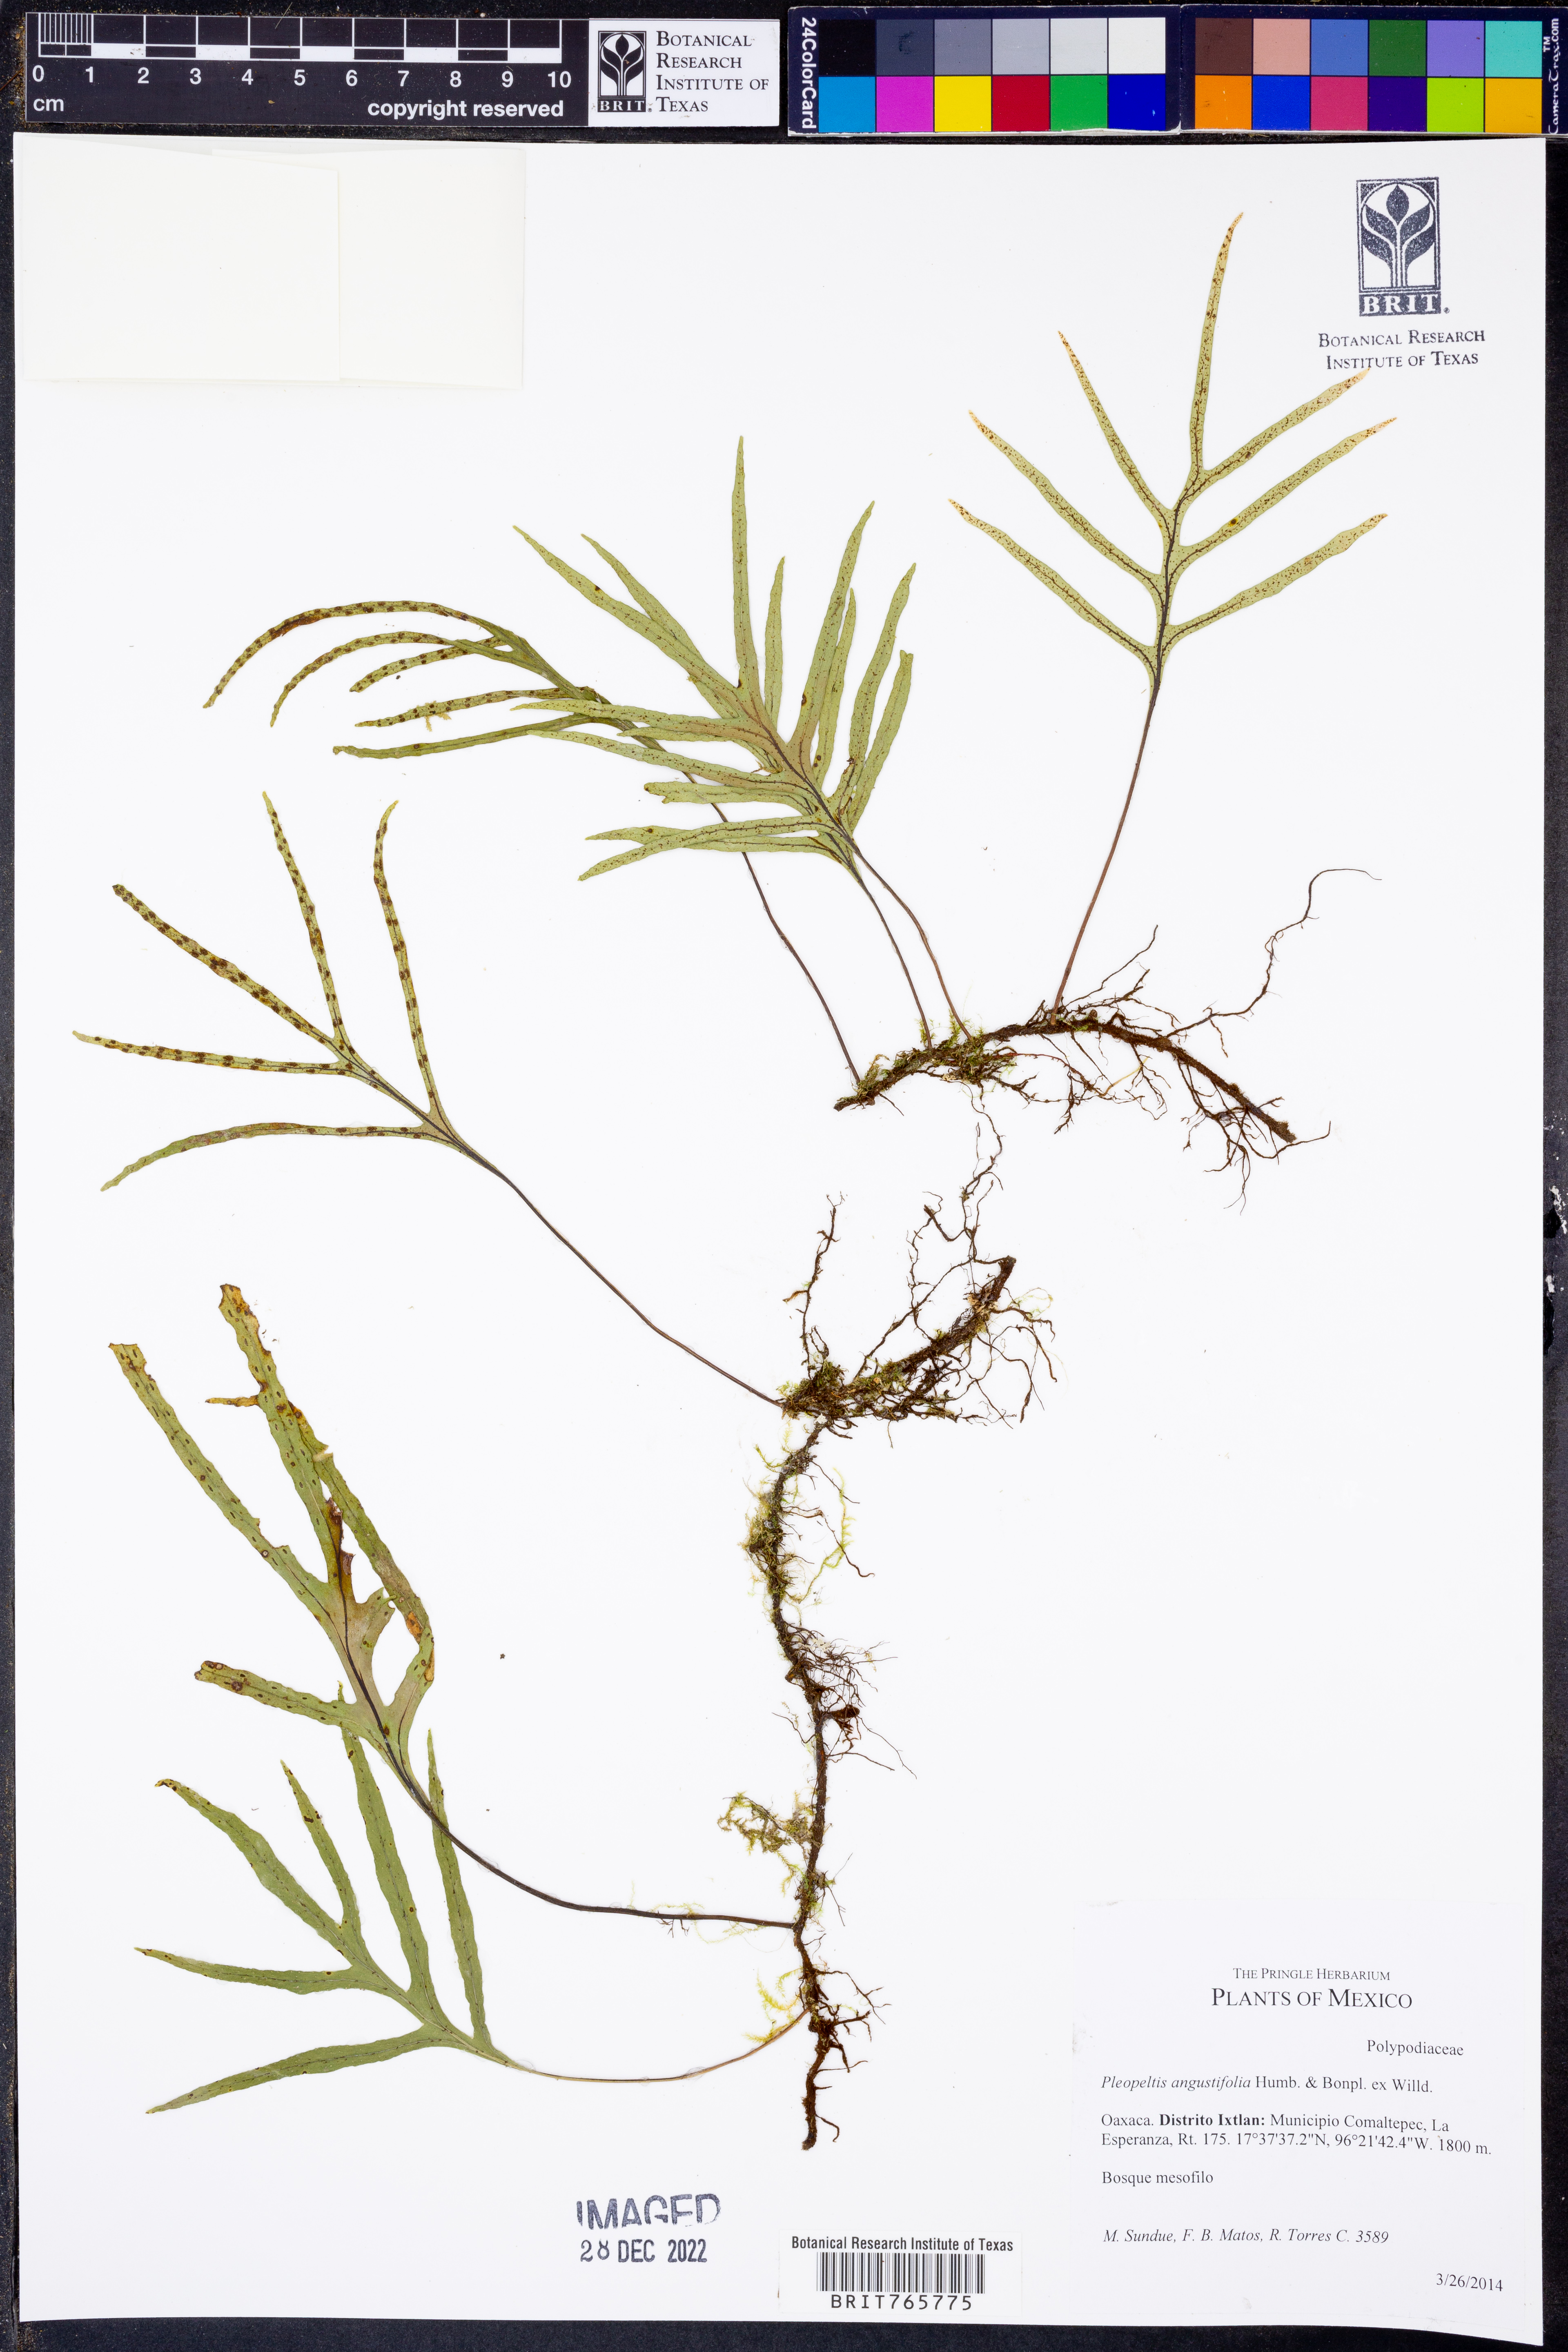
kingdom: Plantae
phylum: Tracheophyta
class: Polypodiopsida
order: Polypodiales
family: Polypodiaceae
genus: Pleopeltis
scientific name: Pleopeltis astrolepis
